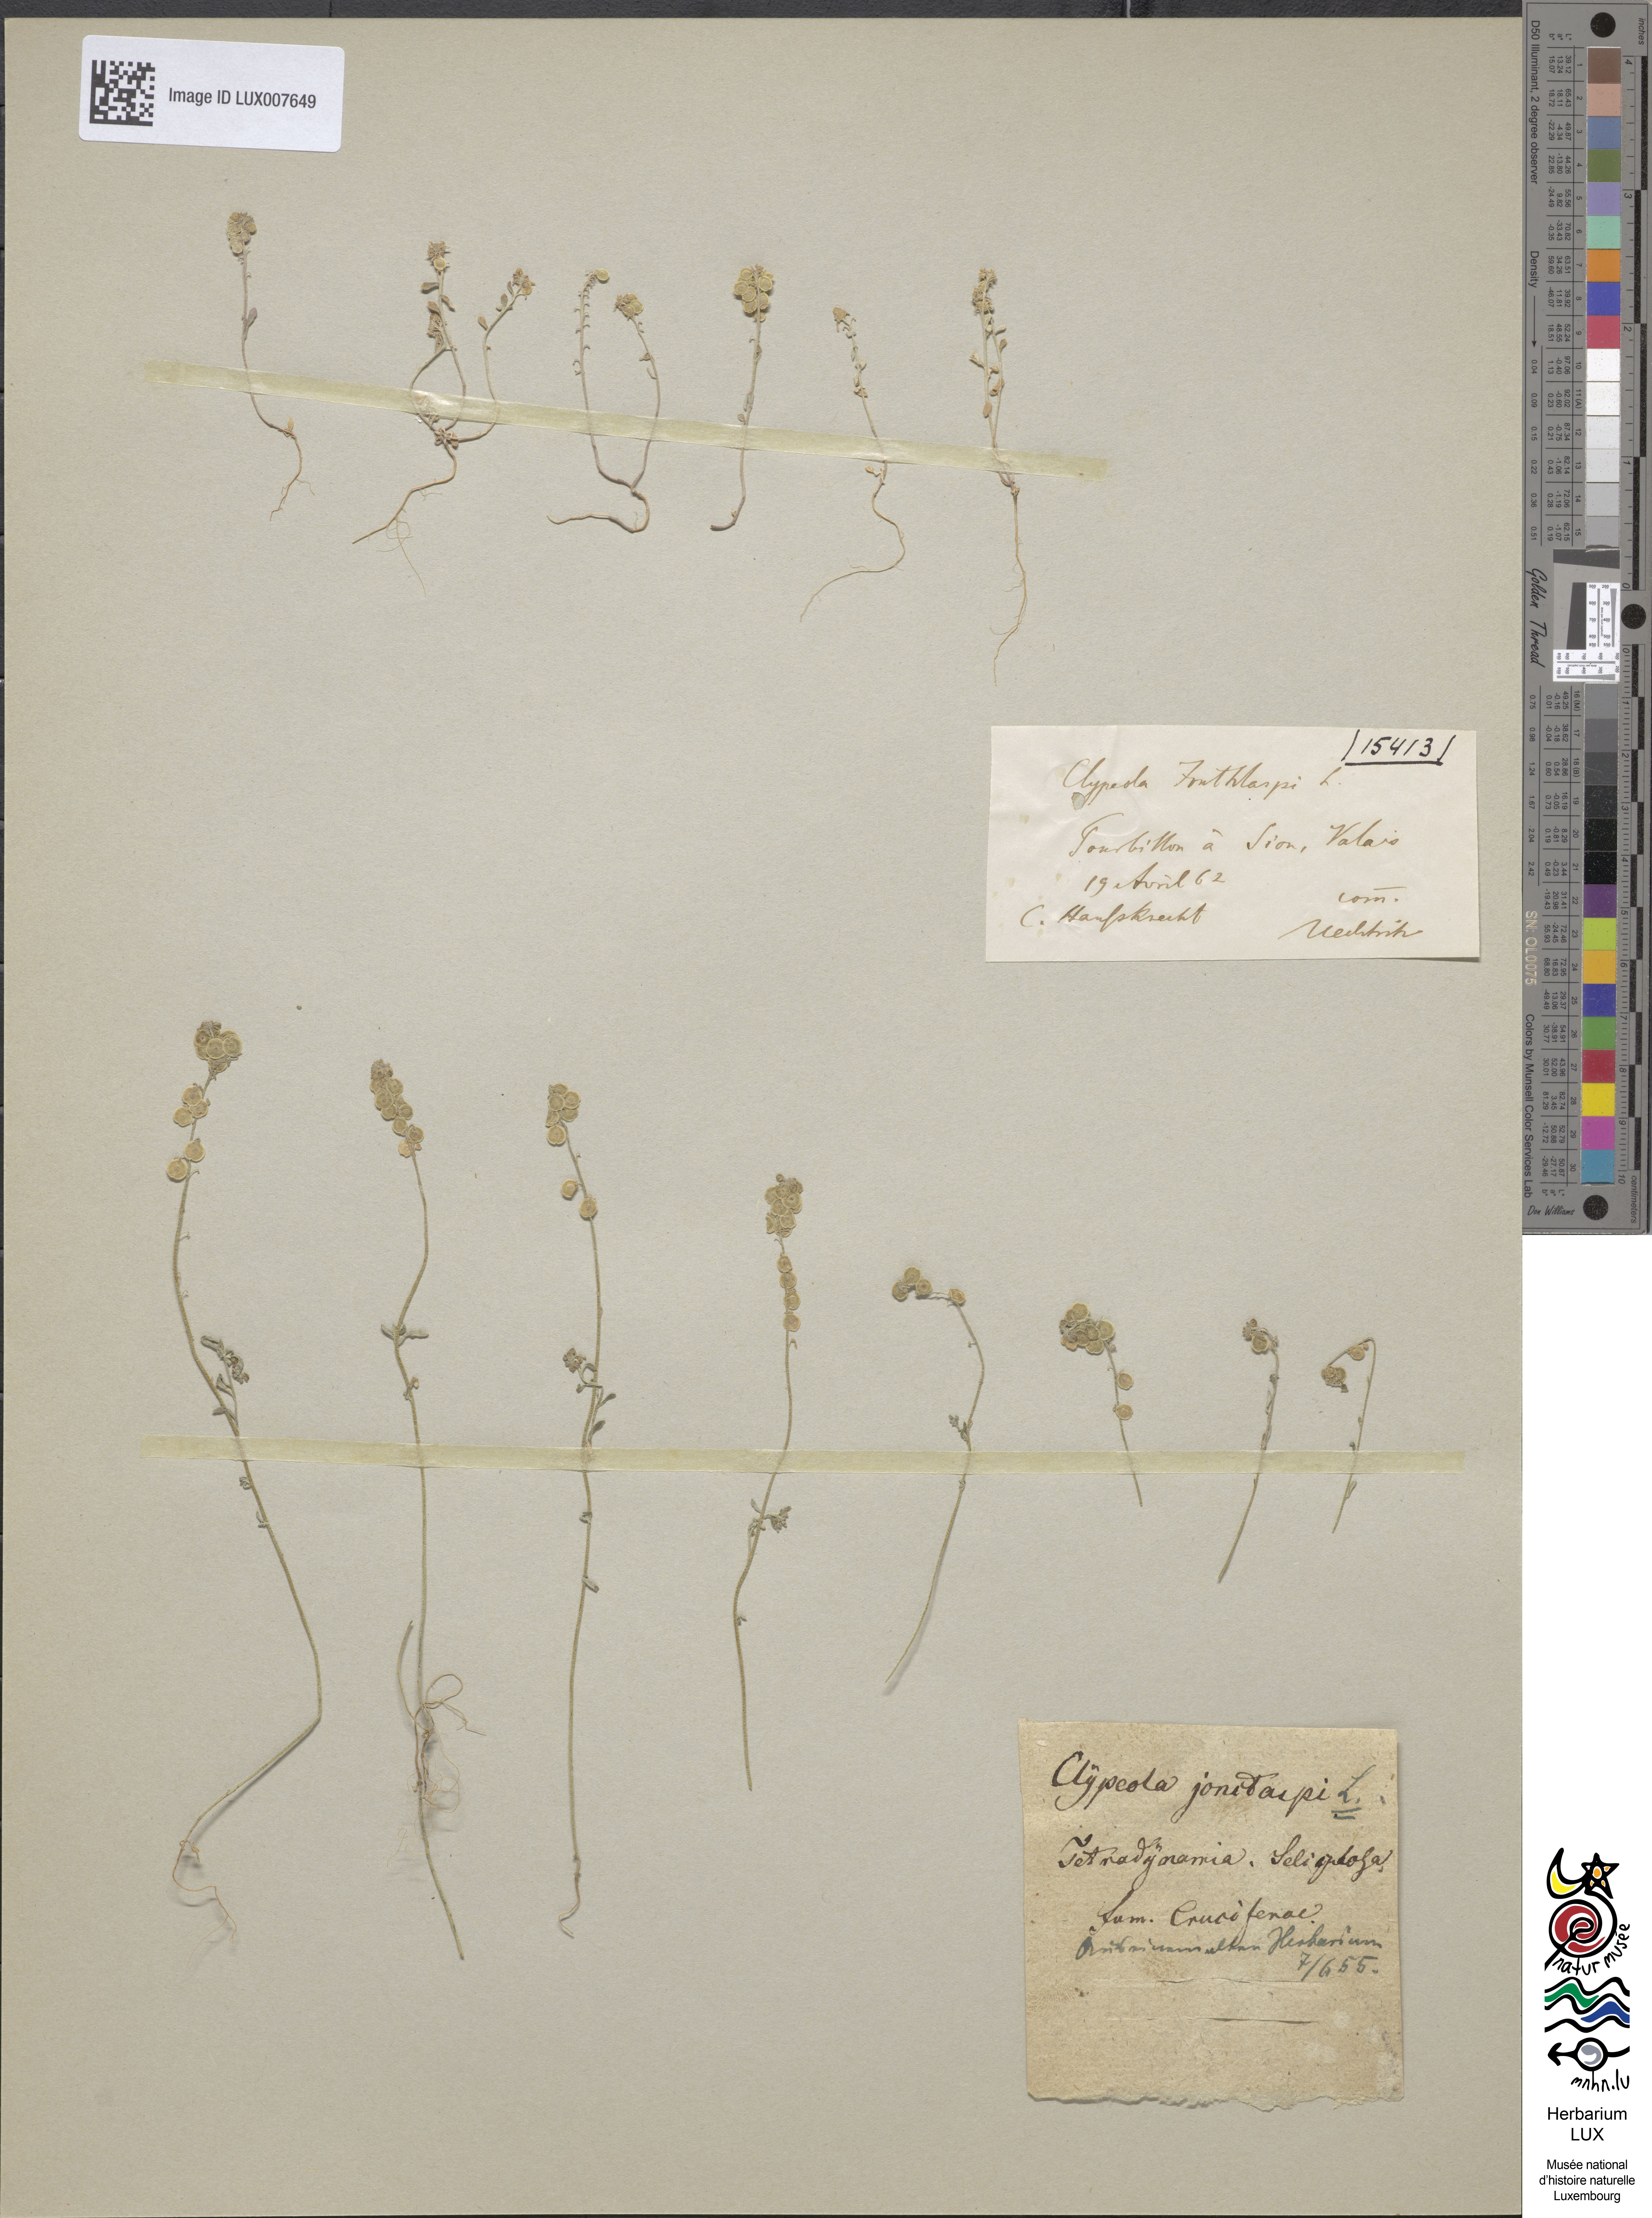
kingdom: Plantae
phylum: Tracheophyta
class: Magnoliopsida
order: Brassicales
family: Brassicaceae
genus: Clypeola
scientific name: Clypeola jonthlaspi
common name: Disk cress
